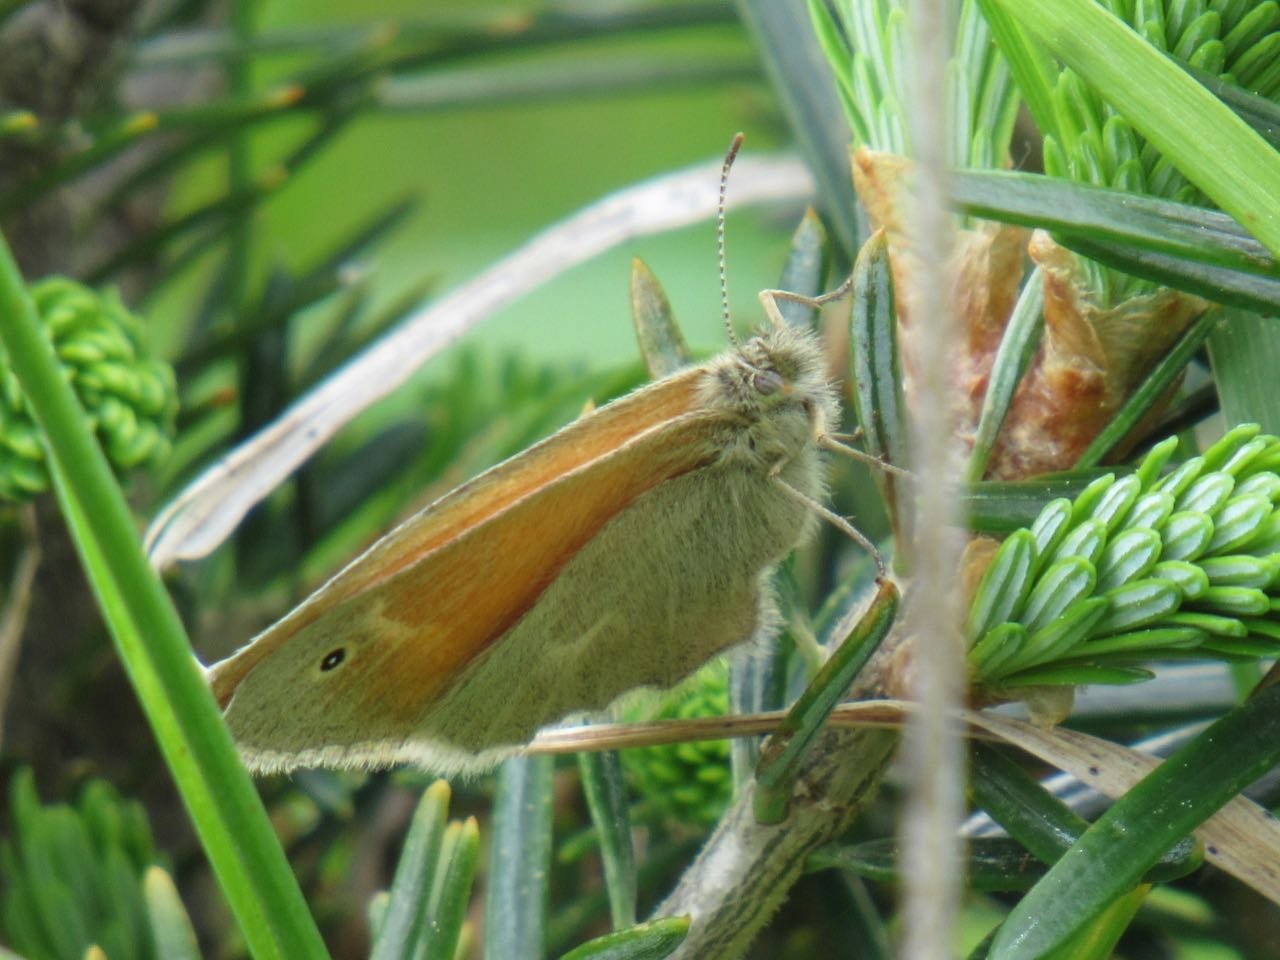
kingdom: Animalia
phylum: Arthropoda
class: Insecta
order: Lepidoptera
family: Nymphalidae
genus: Coenonympha
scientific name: Coenonympha tullia
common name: Large Heath
